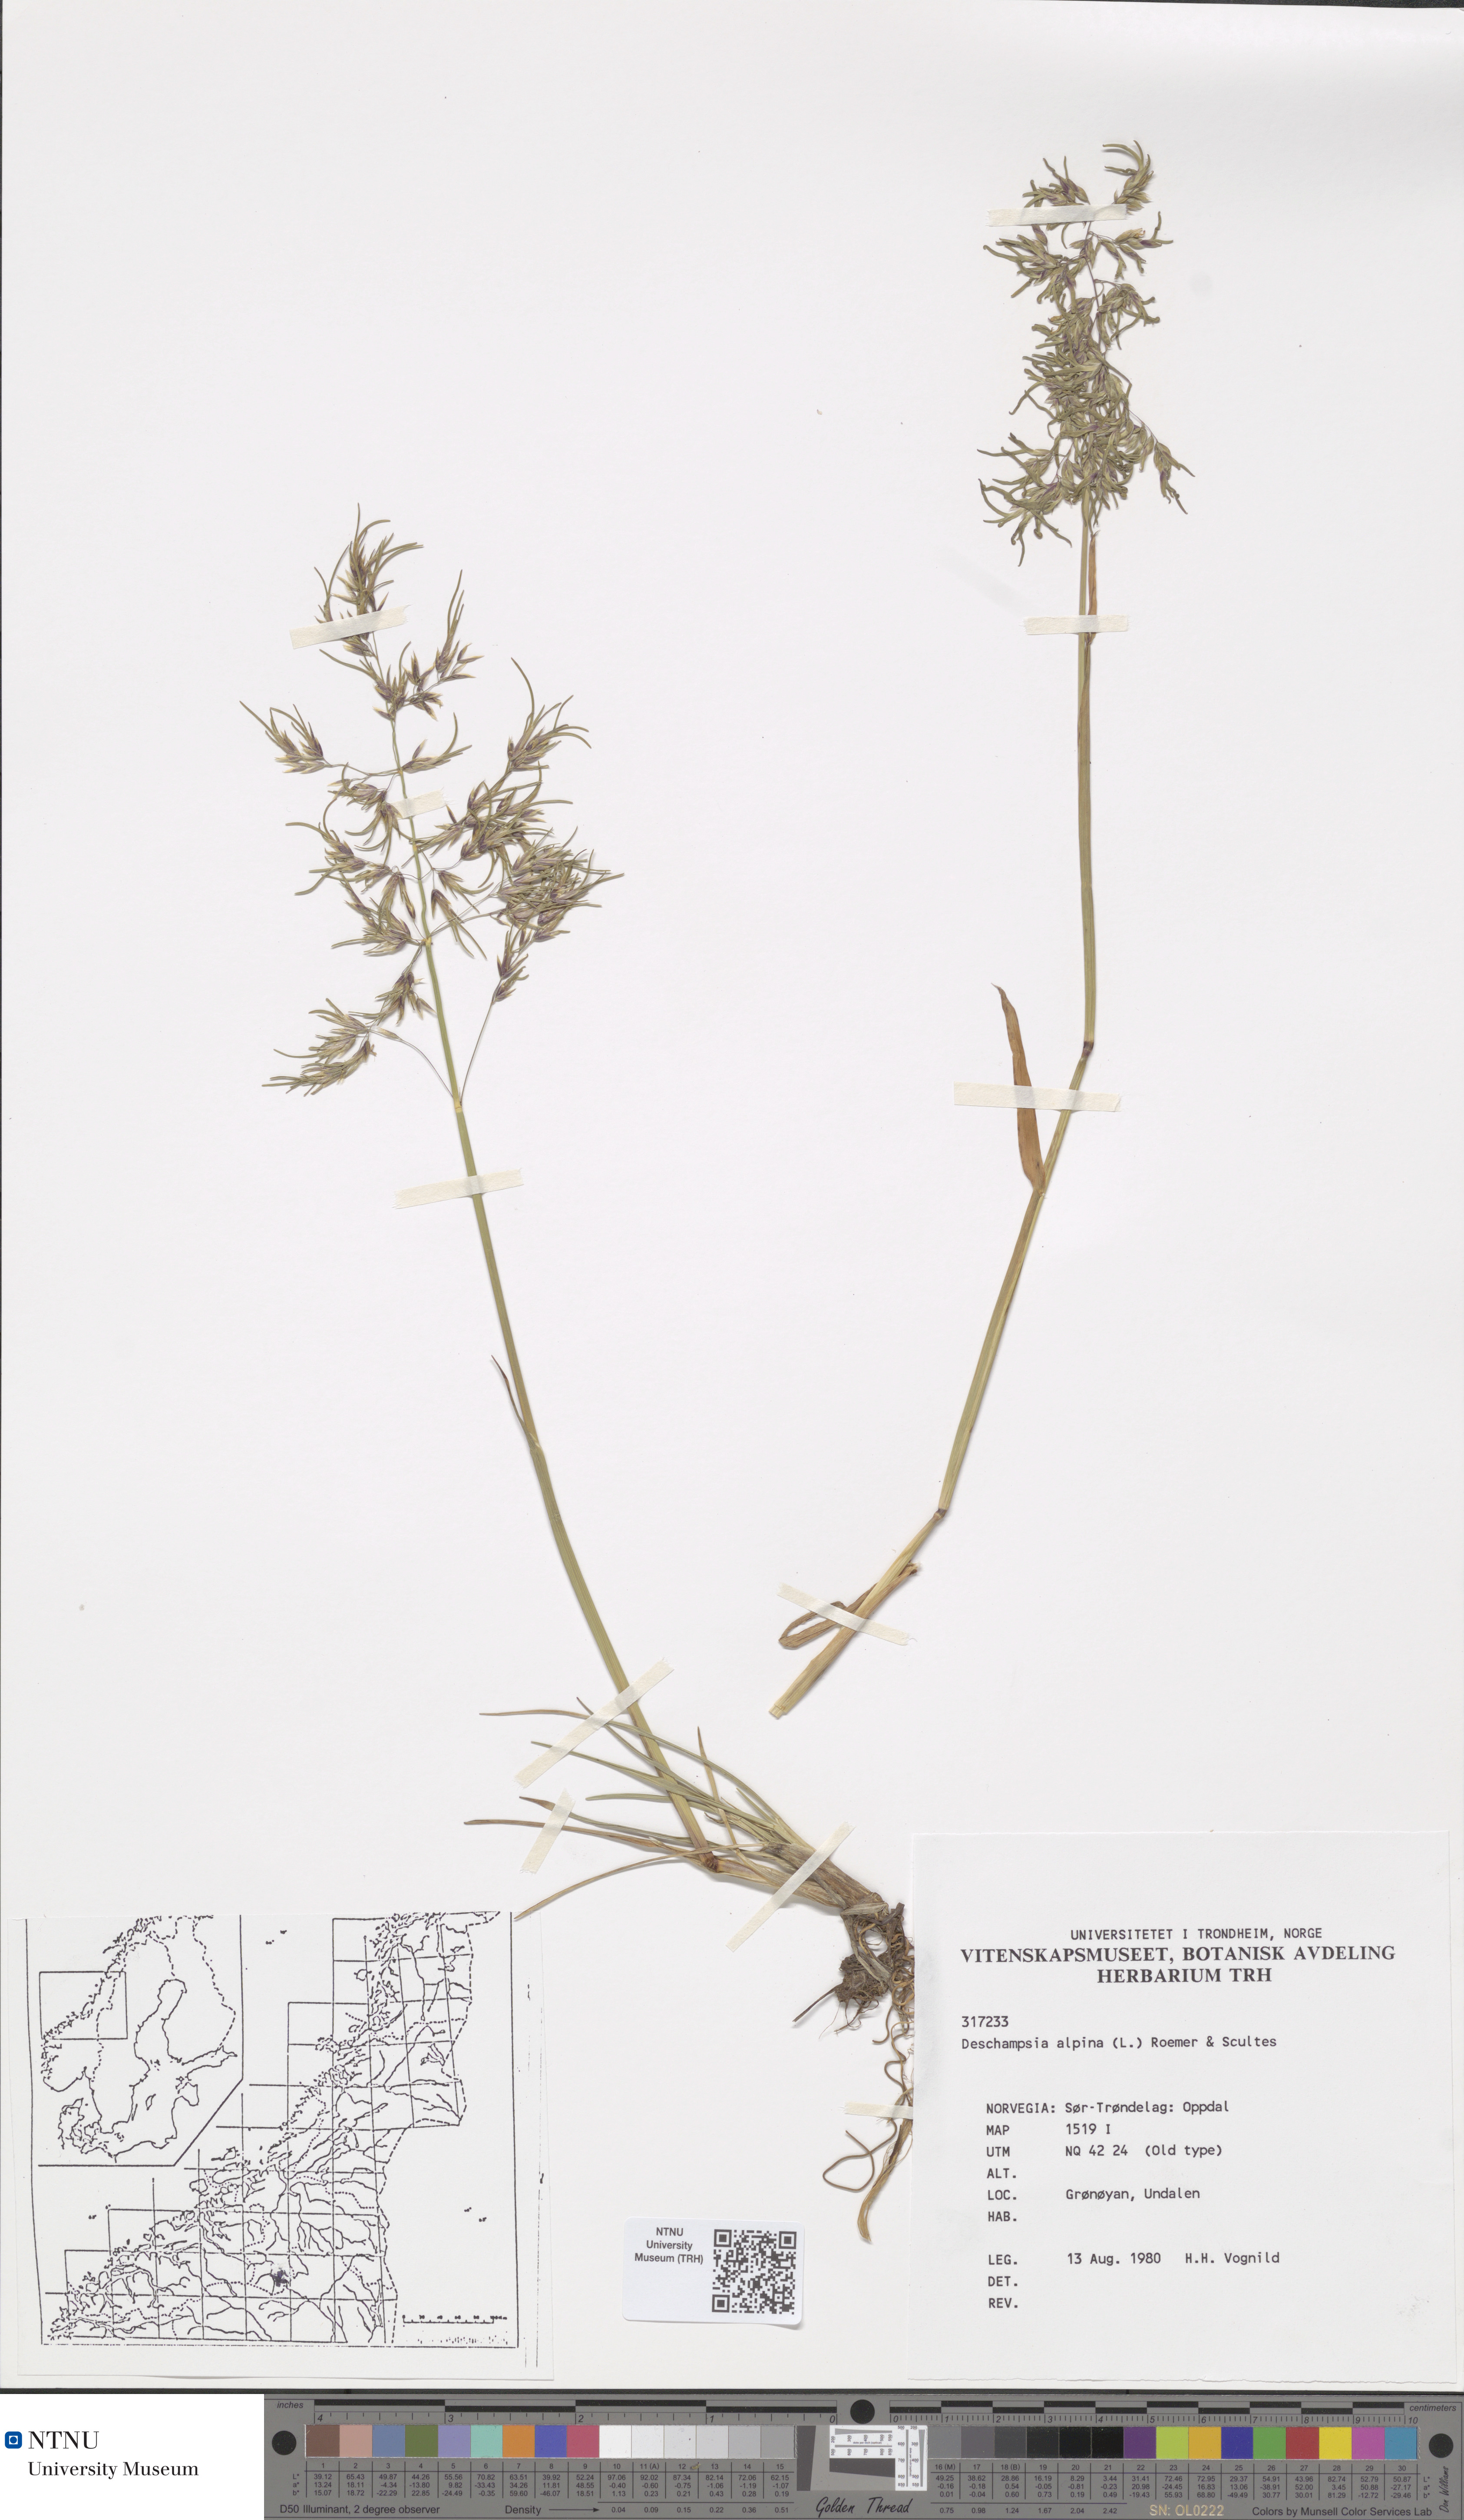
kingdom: Plantae
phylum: Tracheophyta
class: Liliopsida
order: Poales
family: Poaceae
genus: Deschampsia
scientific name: Deschampsia cespitosa
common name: Tufted hair-grass
